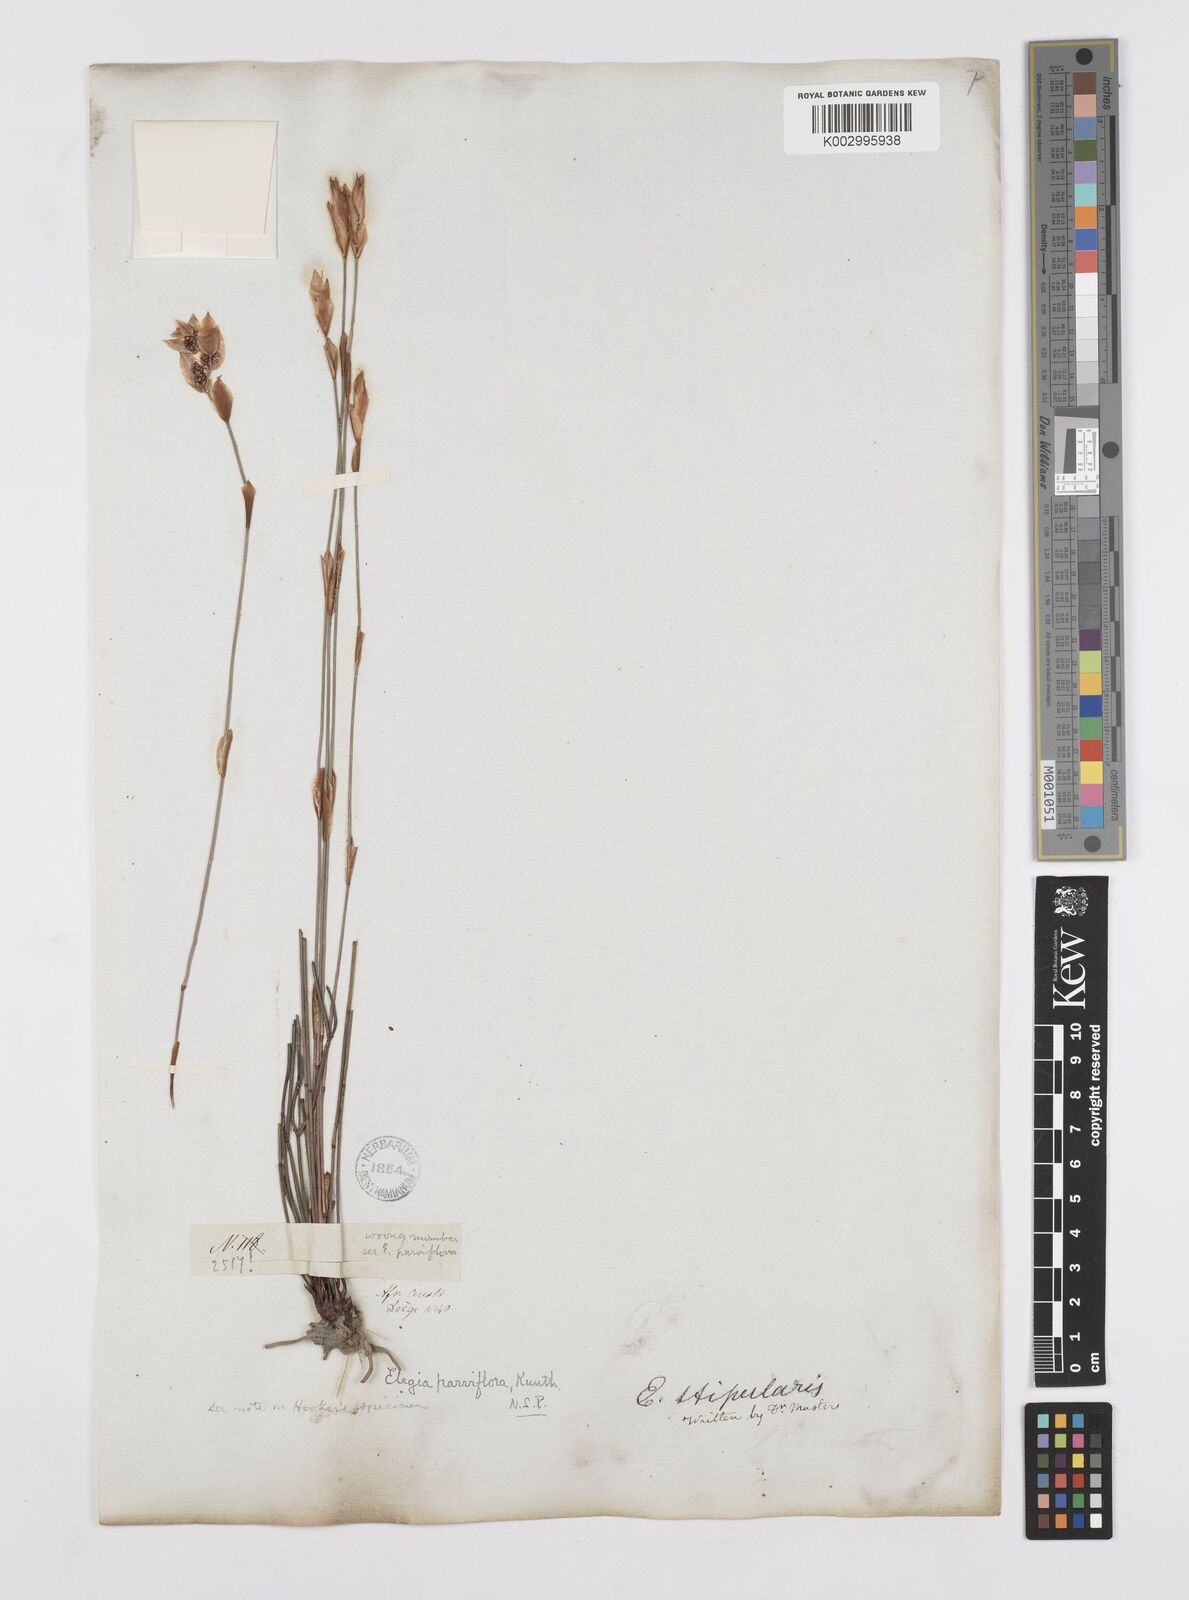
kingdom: Plantae
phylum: Tracheophyta
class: Liliopsida
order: Poales
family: Restionaceae
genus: Cannomois
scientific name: Cannomois parviflora
